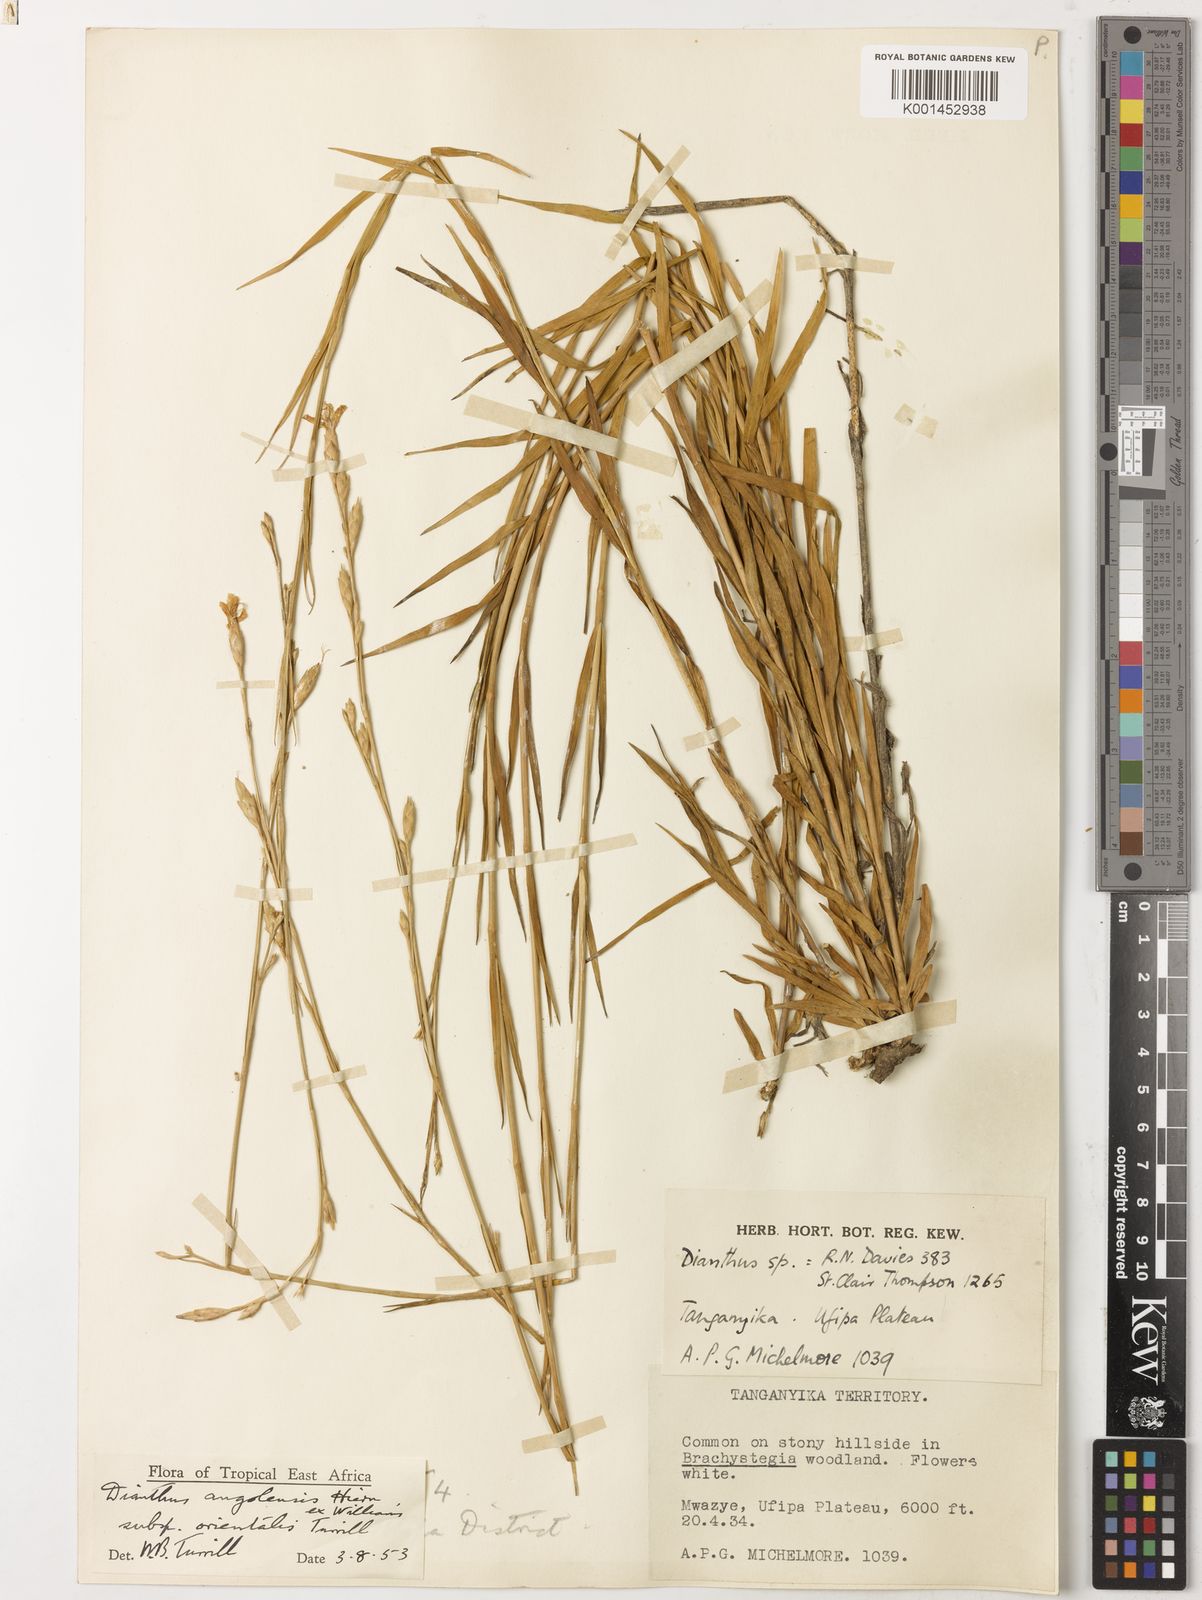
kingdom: Plantae
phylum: Tracheophyta
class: Magnoliopsida
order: Caryophyllales
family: Caryophyllaceae
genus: Dianthus
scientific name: Dianthus excelsus
